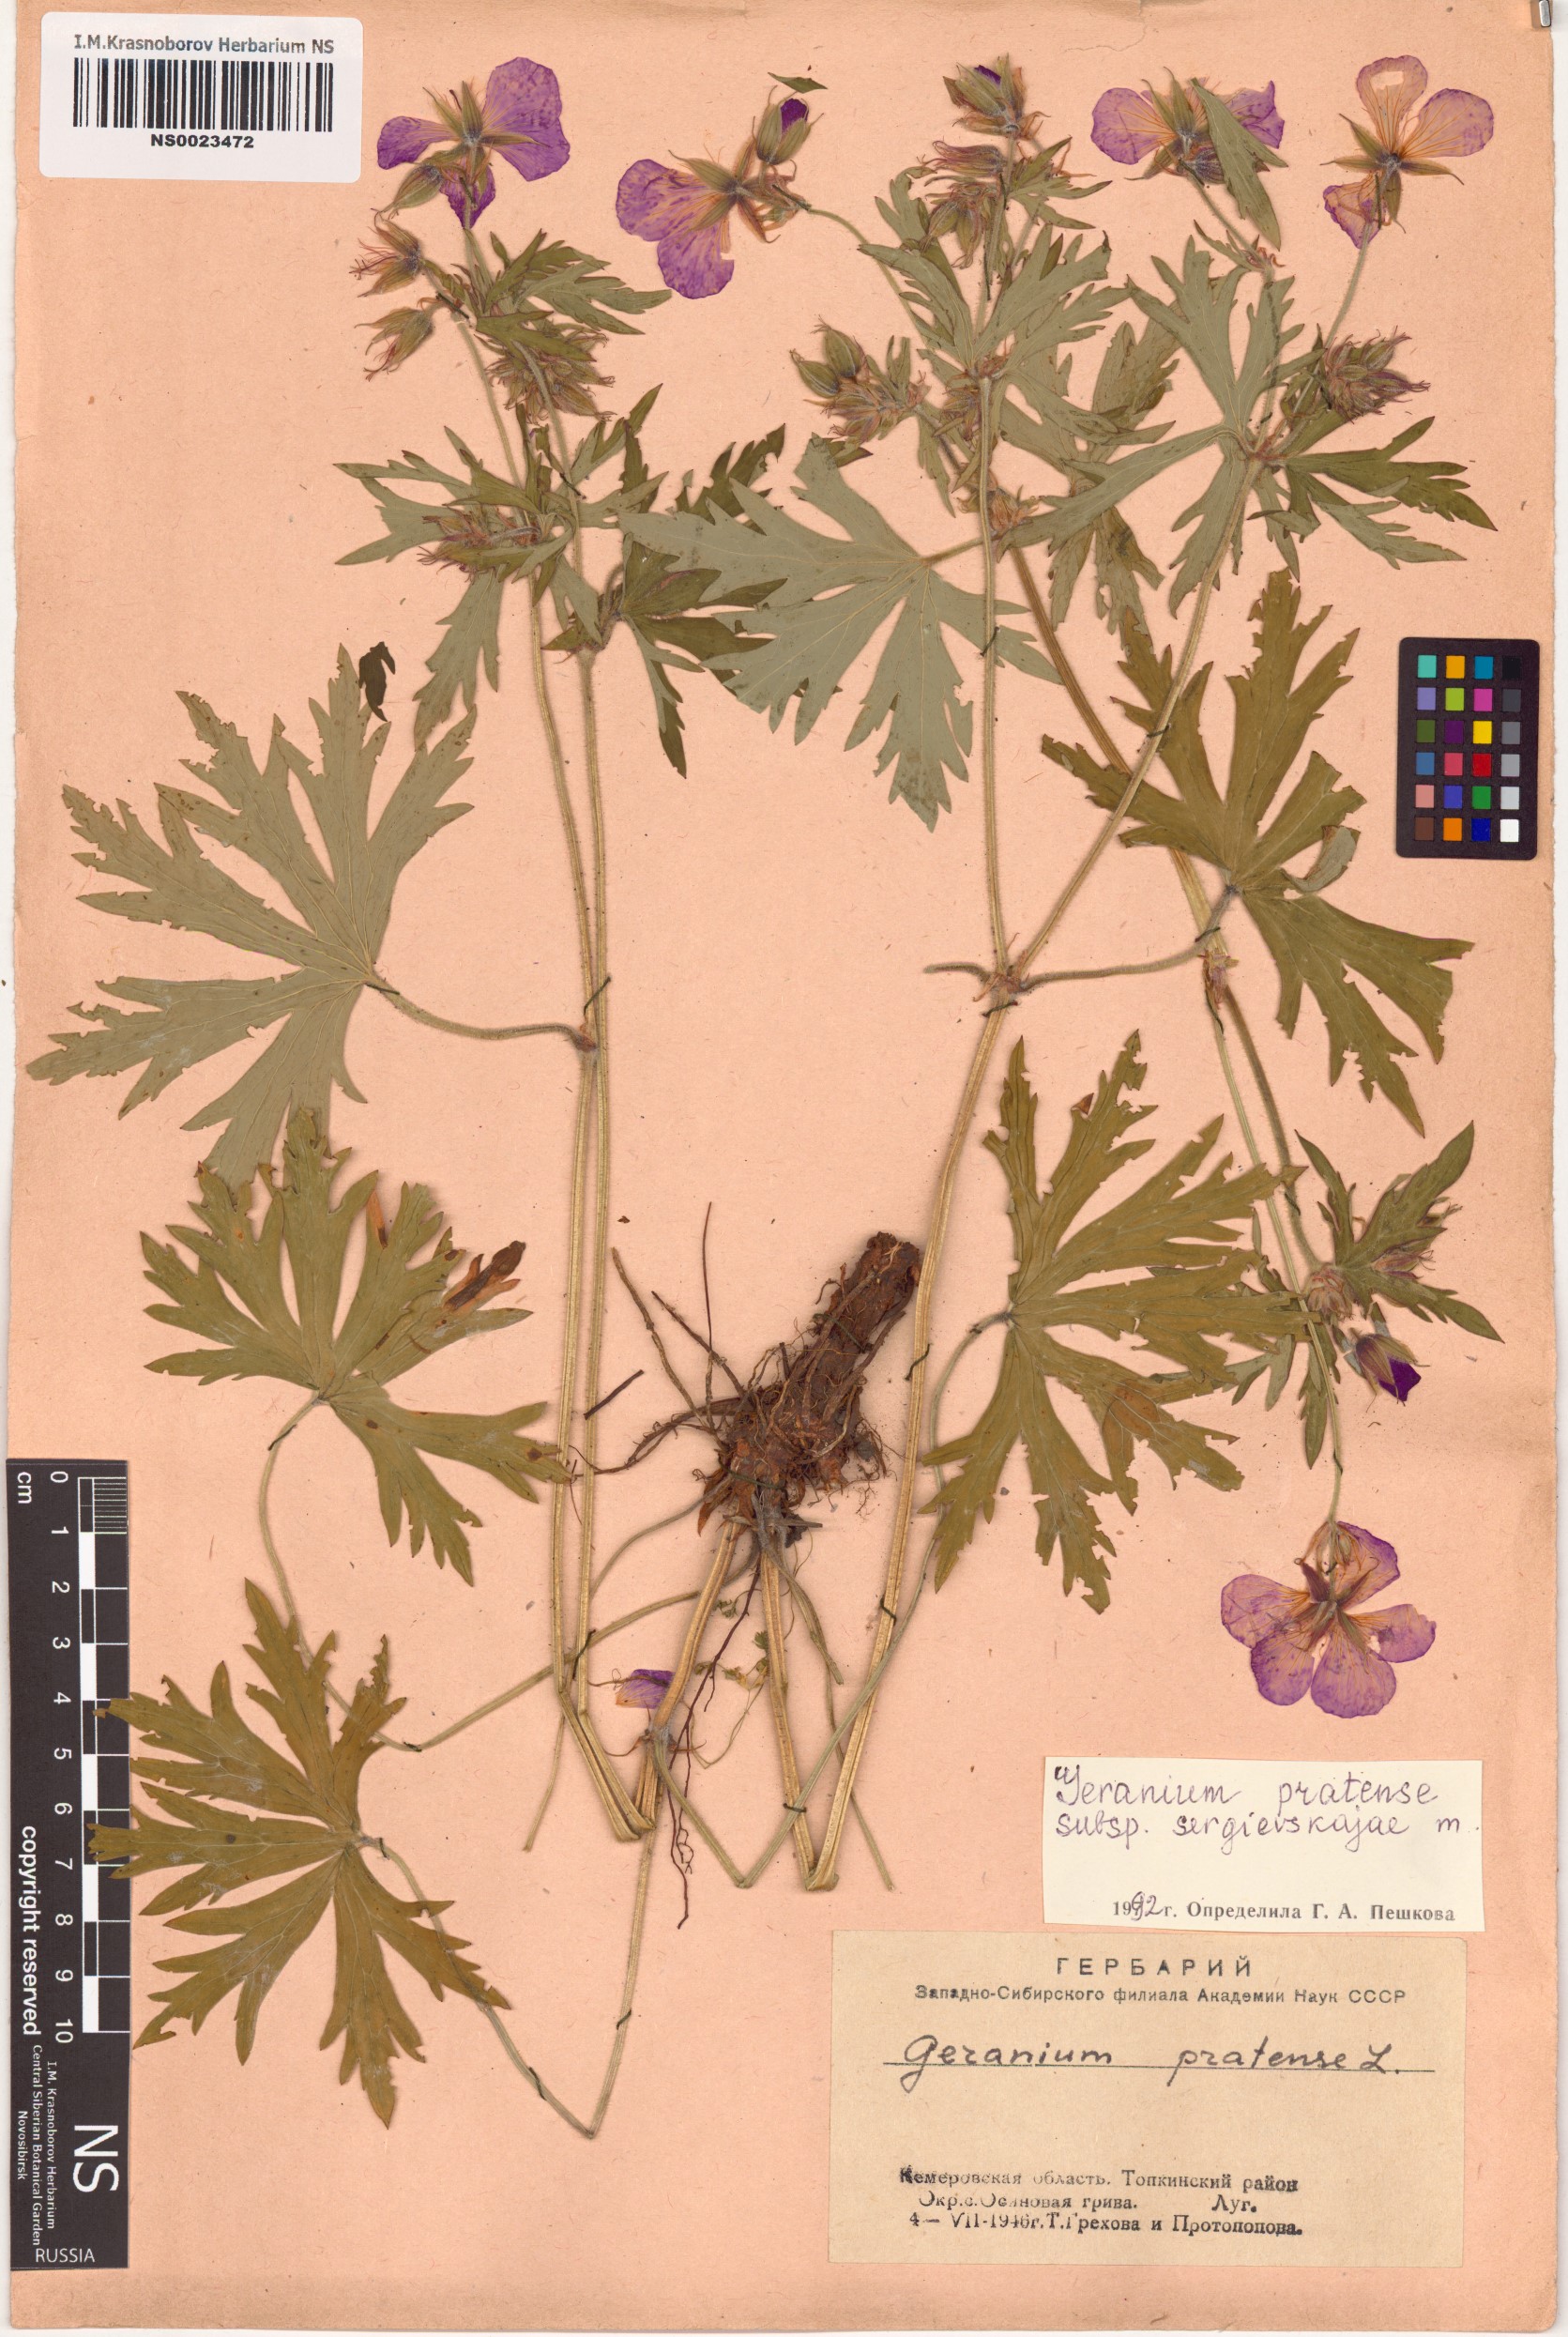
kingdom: Plantae
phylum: Tracheophyta
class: Magnoliopsida
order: Geraniales
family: Geraniaceae
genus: Geranium
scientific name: Geranium pratense
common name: Meadow crane's-bill
